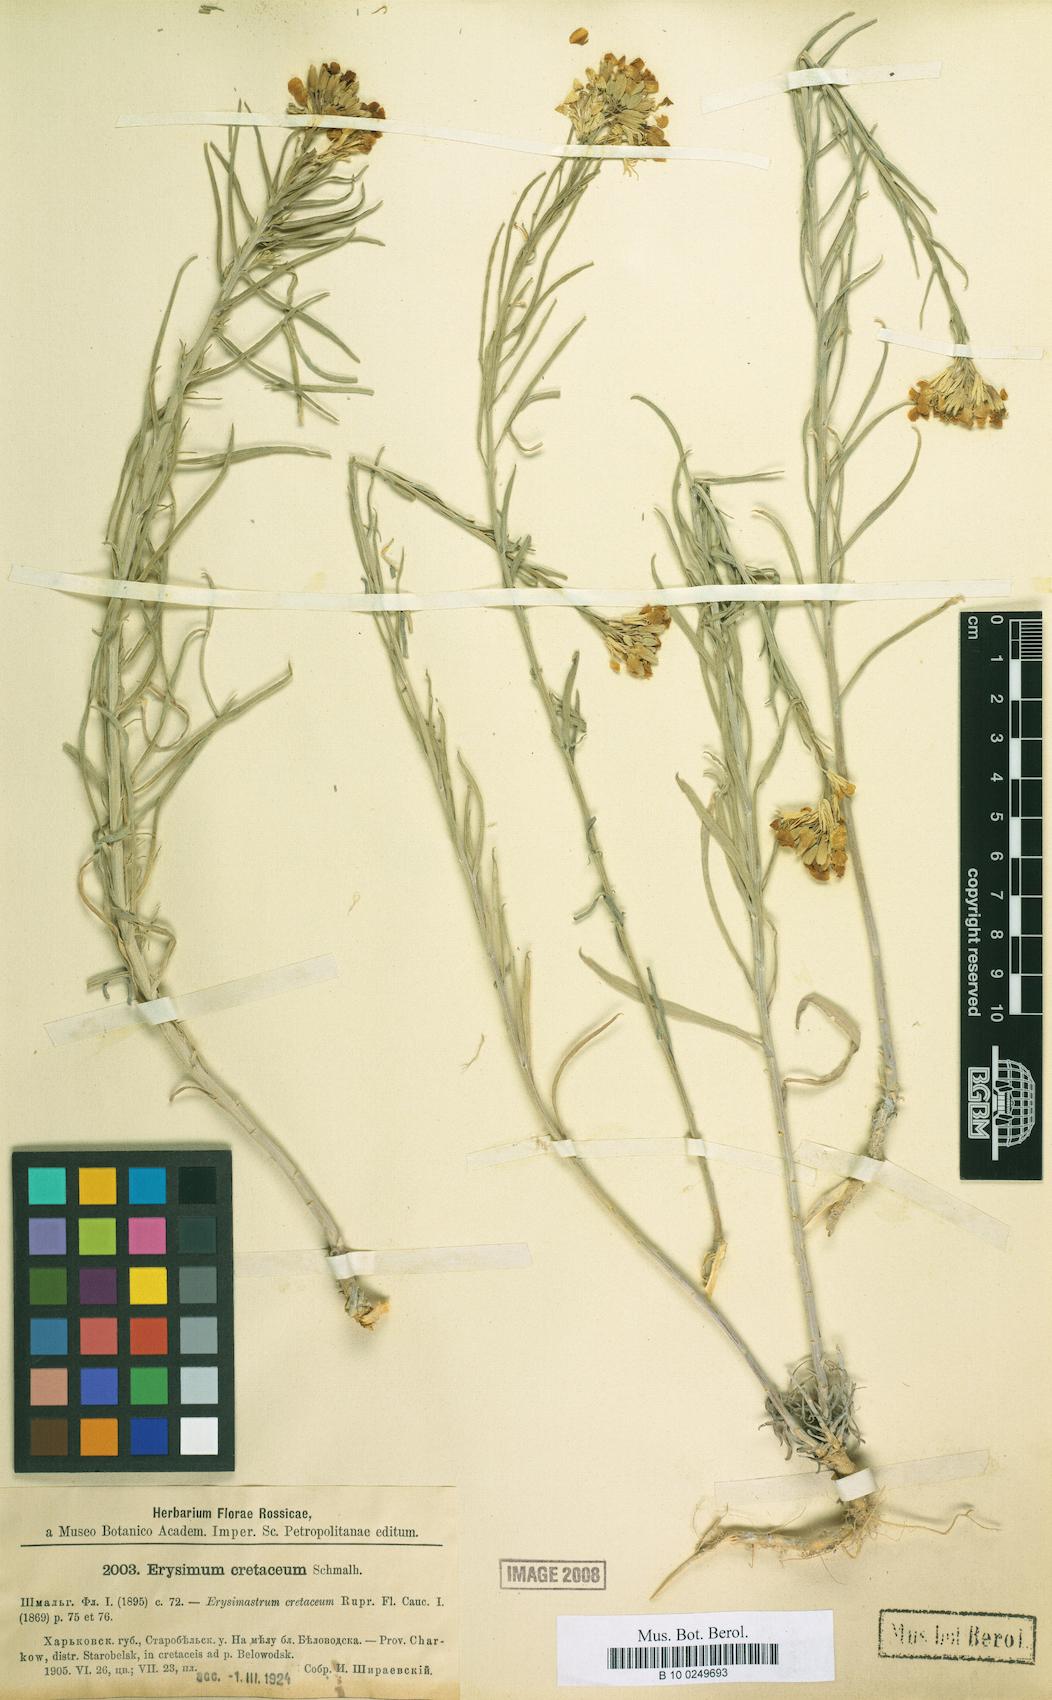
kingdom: Plantae
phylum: Tracheophyta
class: Magnoliopsida
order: Brassicales
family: Brassicaceae
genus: Erysimum
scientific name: Erysimum ucranicum
